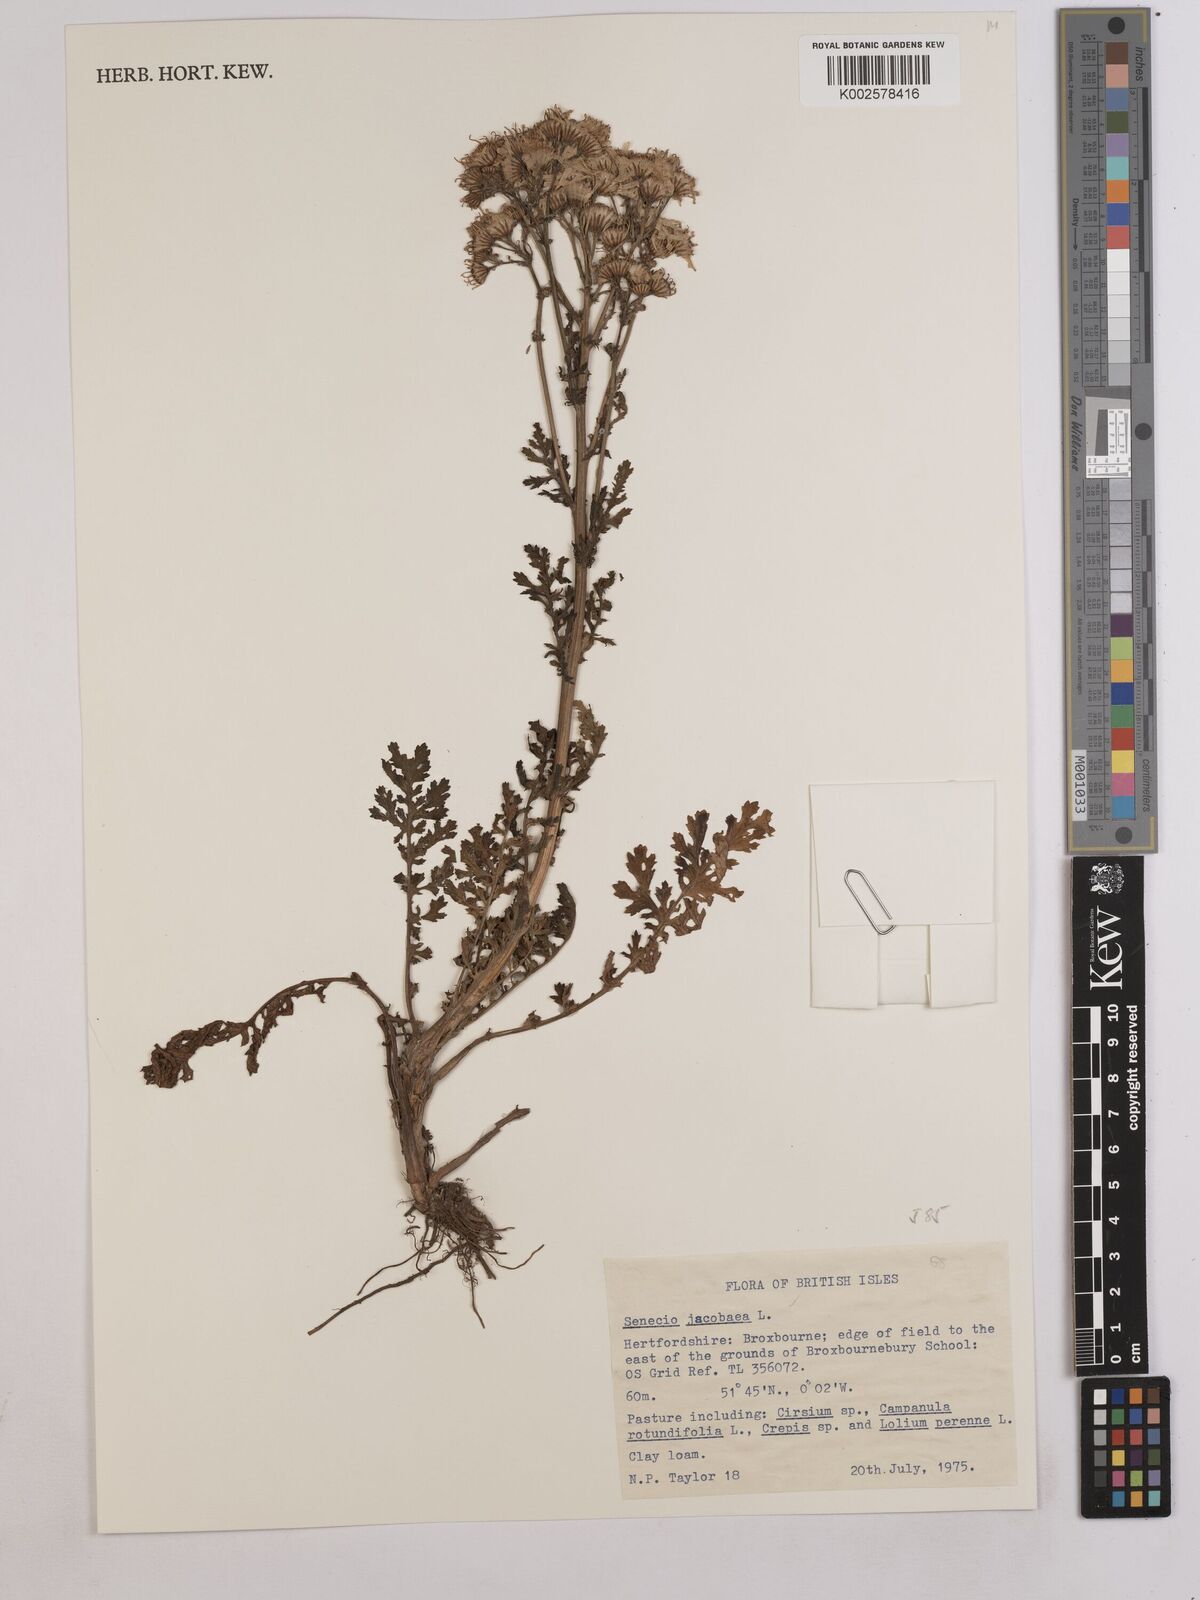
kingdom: Plantae
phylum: Tracheophyta
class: Magnoliopsida
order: Asterales
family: Asteraceae
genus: Jacobaea
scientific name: Jacobaea vulgaris
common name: Stinking willie
